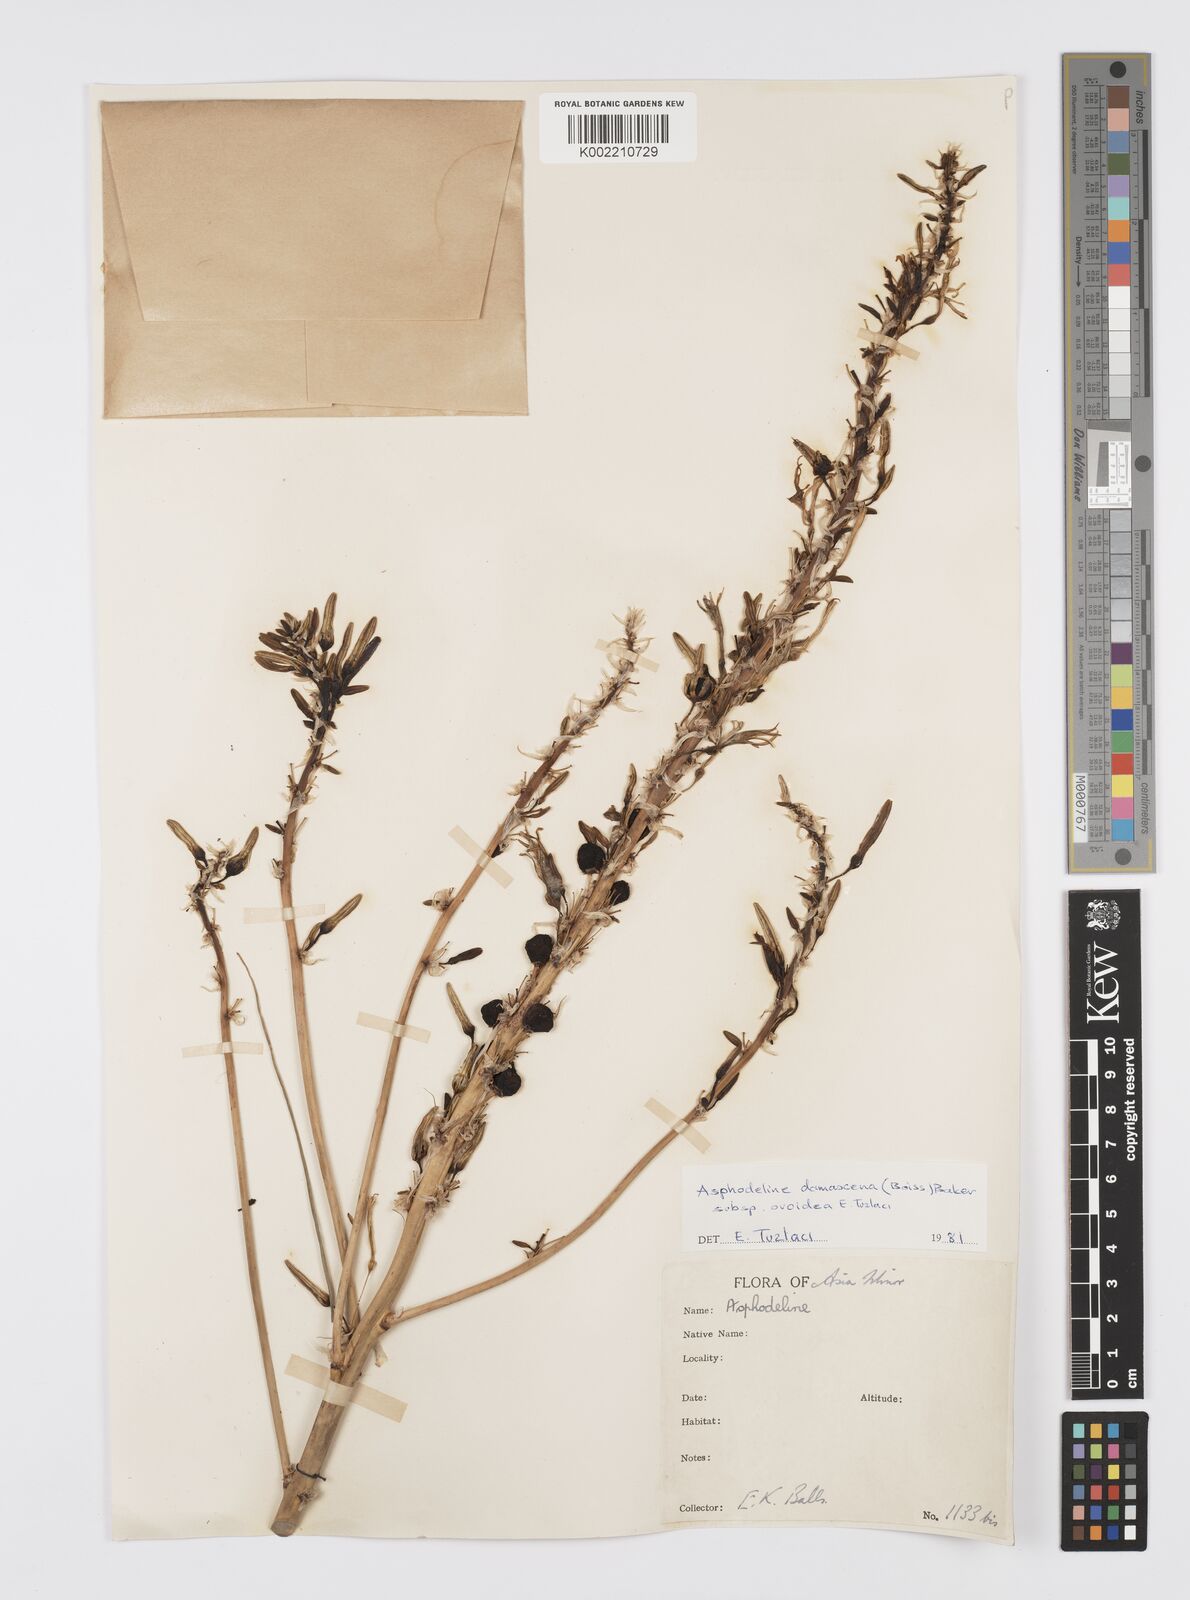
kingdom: Plantae
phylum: Tracheophyta
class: Liliopsida
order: Asparagales
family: Asphodelaceae
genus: Asphodeline
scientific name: Asphodeline damascena
